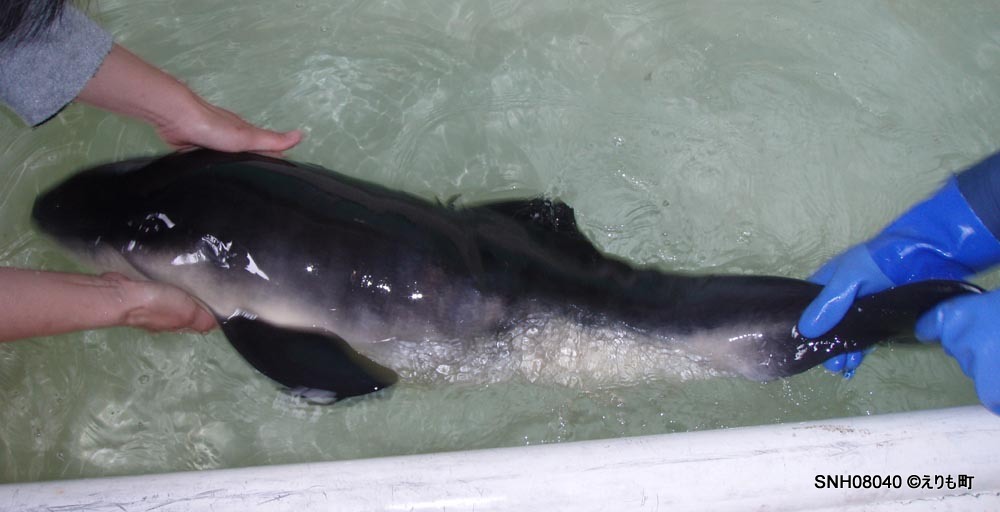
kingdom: Animalia
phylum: Chordata
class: Mammalia
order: Cetacea
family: Phocoenidae
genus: Phocoena
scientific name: Phocoena phocoena
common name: Harbour porpoise
